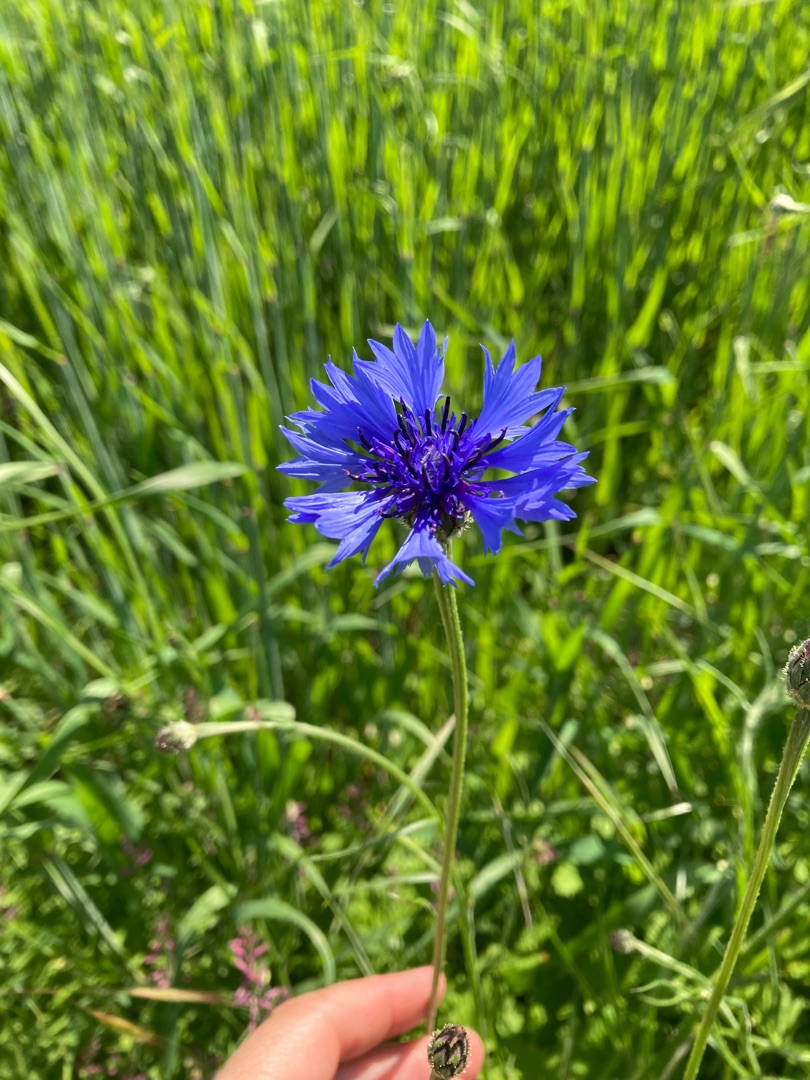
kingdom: Plantae
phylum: Tracheophyta
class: Magnoliopsida
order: Asterales
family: Asteraceae
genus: Centaurea
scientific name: Centaurea cyanus
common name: Kornblomst
